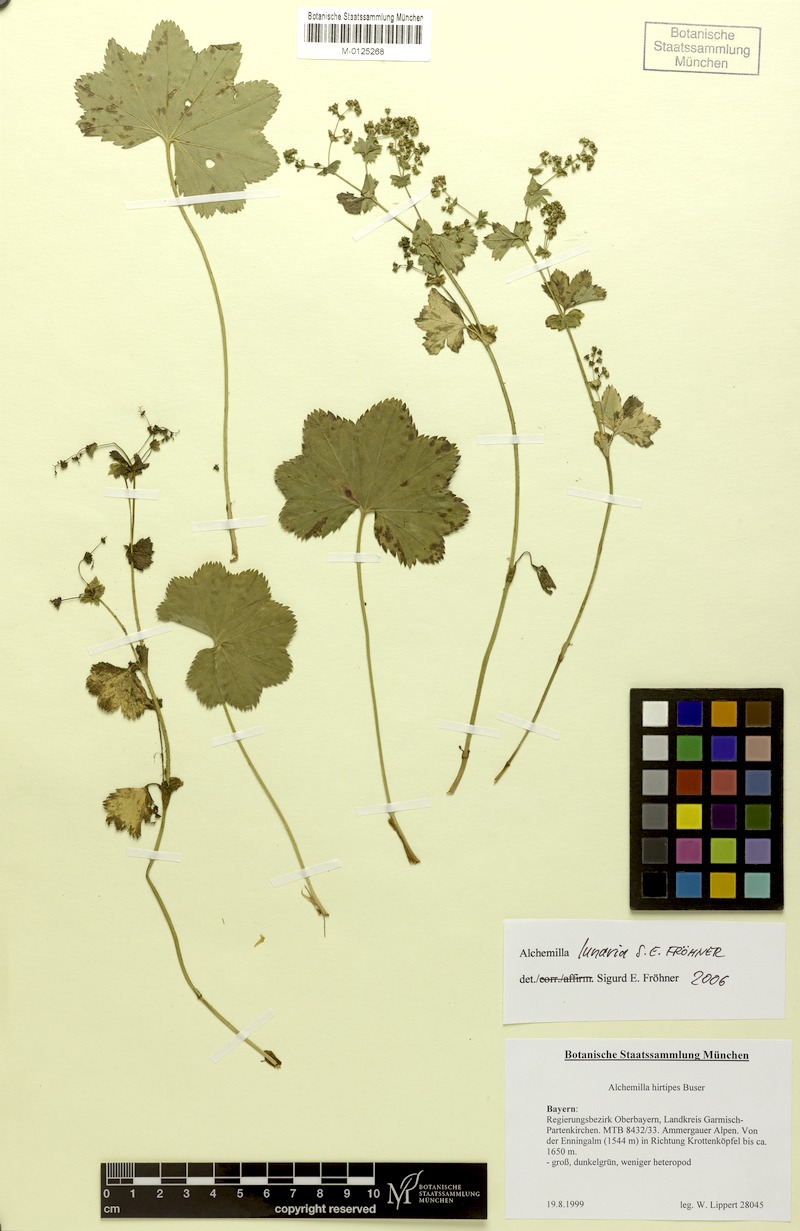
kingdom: Plantae
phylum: Tracheophyta
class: Magnoliopsida
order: Rosales
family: Rosaceae
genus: Alchemilla
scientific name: Alchemilla lunaria
